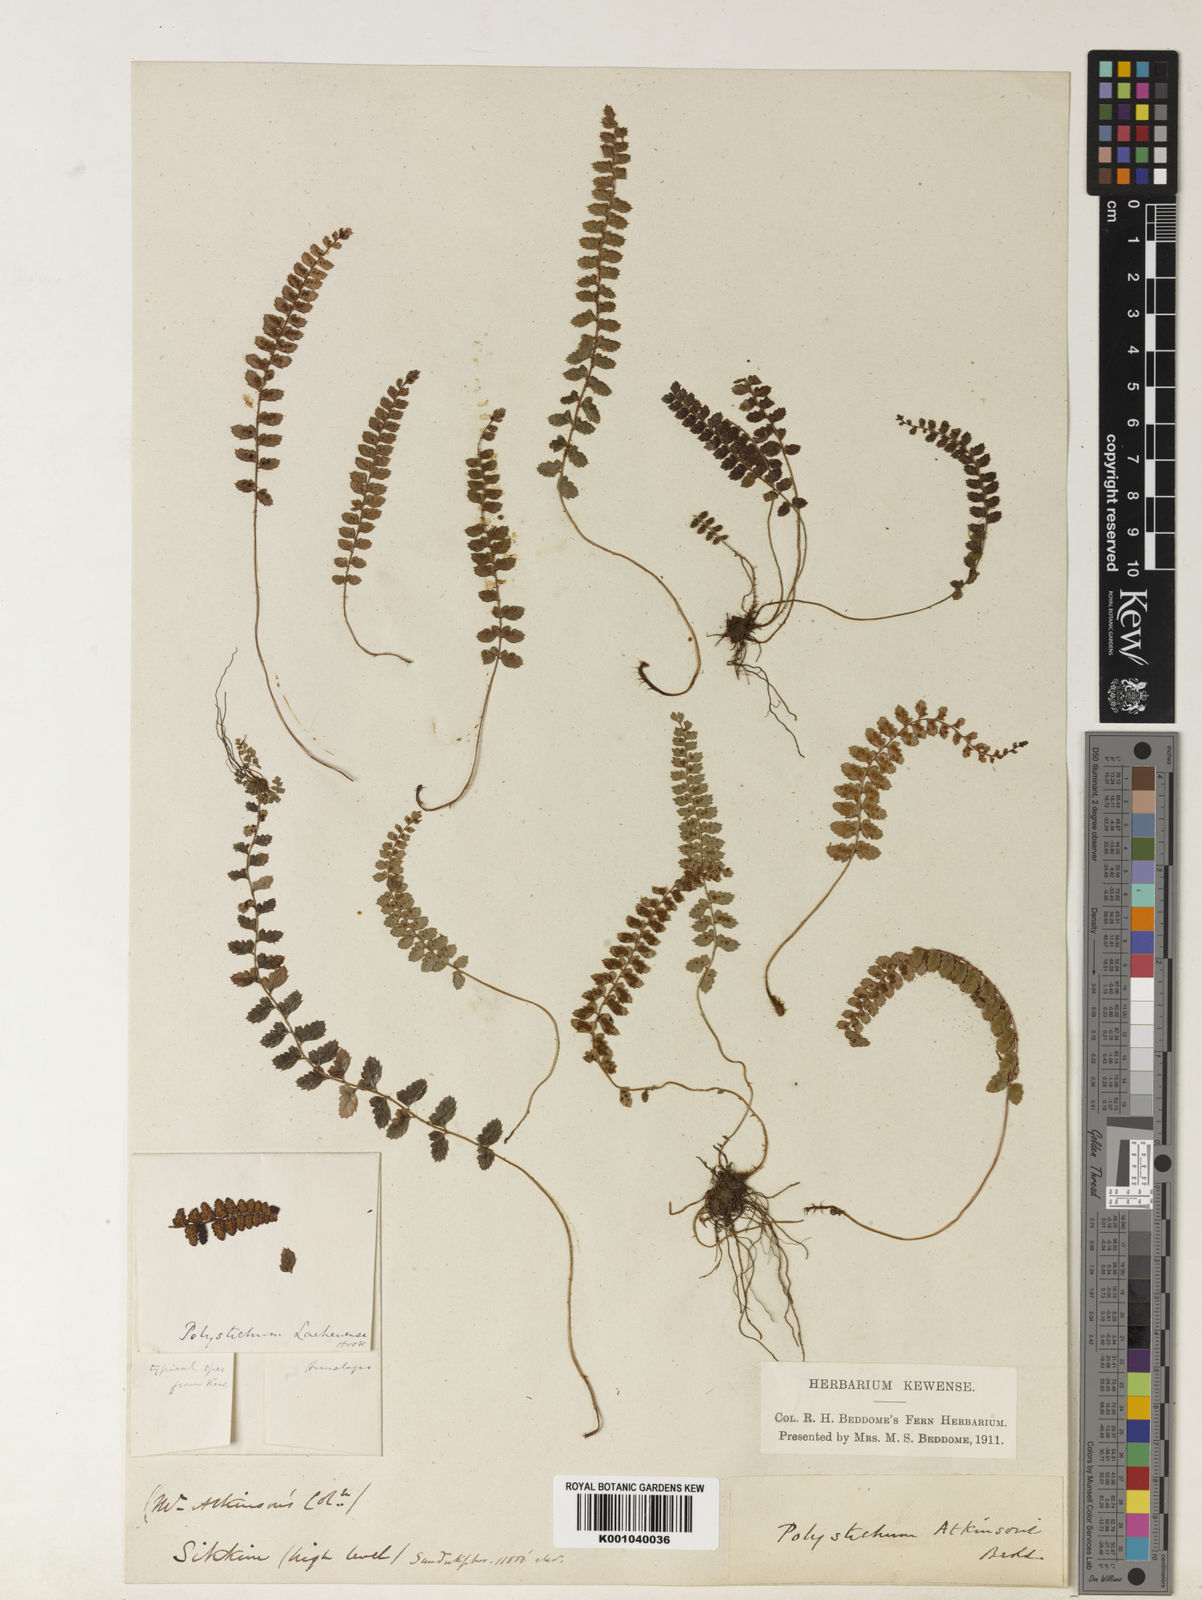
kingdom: Plantae
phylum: Tracheophyta
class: Polypodiopsida
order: Polypodiales
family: Dryopteridaceae
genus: Polystichum
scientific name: Polystichum atkinsonii
